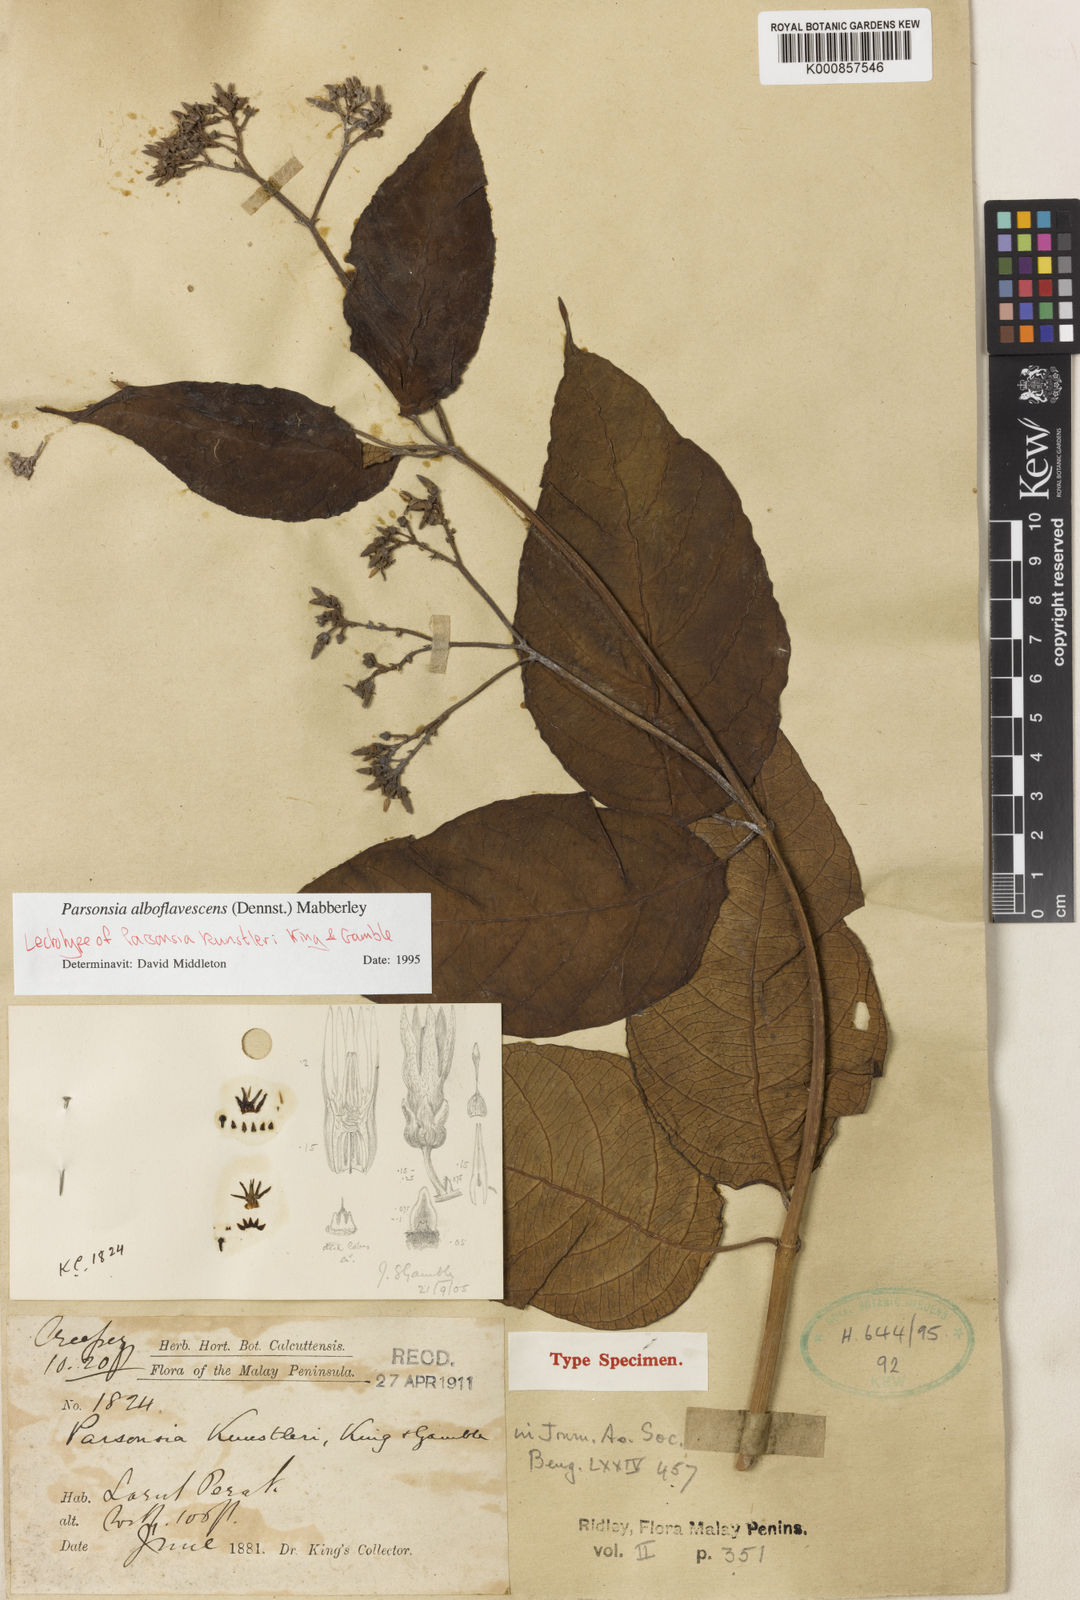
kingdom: Plantae
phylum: Tracheophyta
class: Magnoliopsida
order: Gentianales
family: Apocynaceae
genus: Parsonsia
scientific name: Parsonsia alboflavescens
